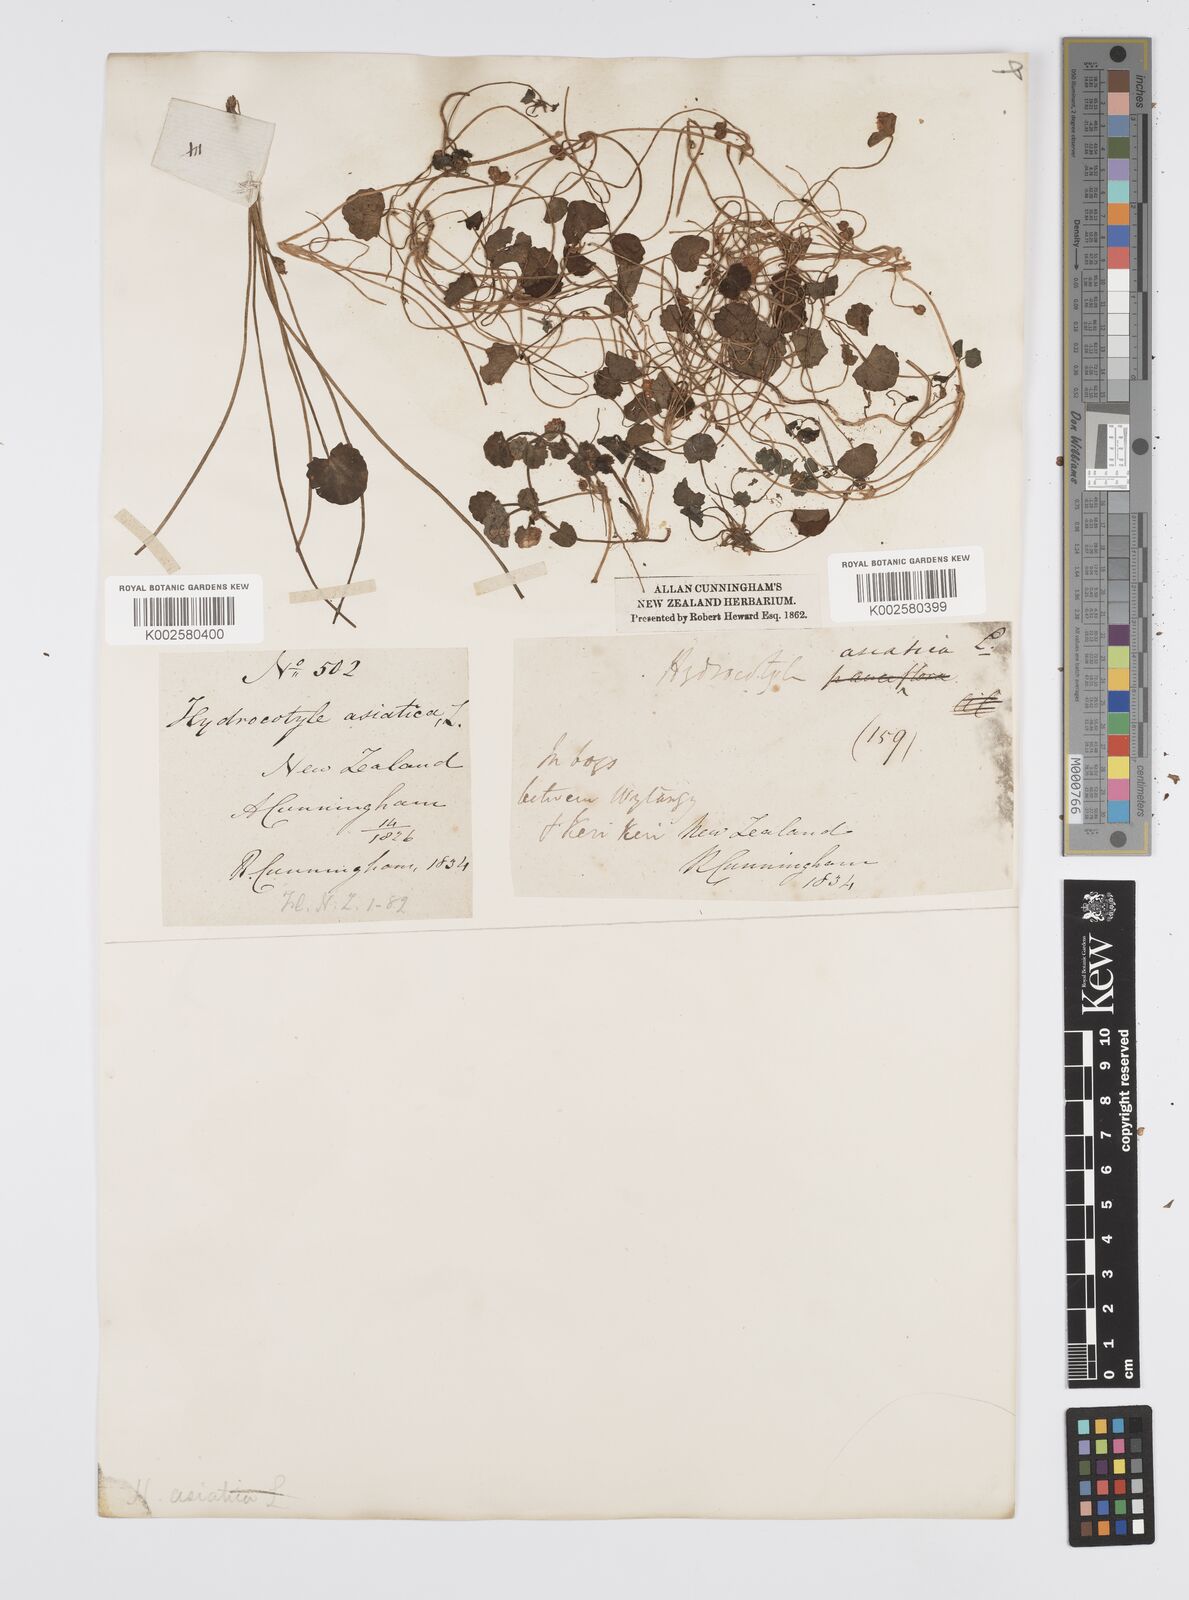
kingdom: Plantae
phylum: Tracheophyta
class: Magnoliopsida
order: Apiales
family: Apiaceae
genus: Centella
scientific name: Centella uniflora
